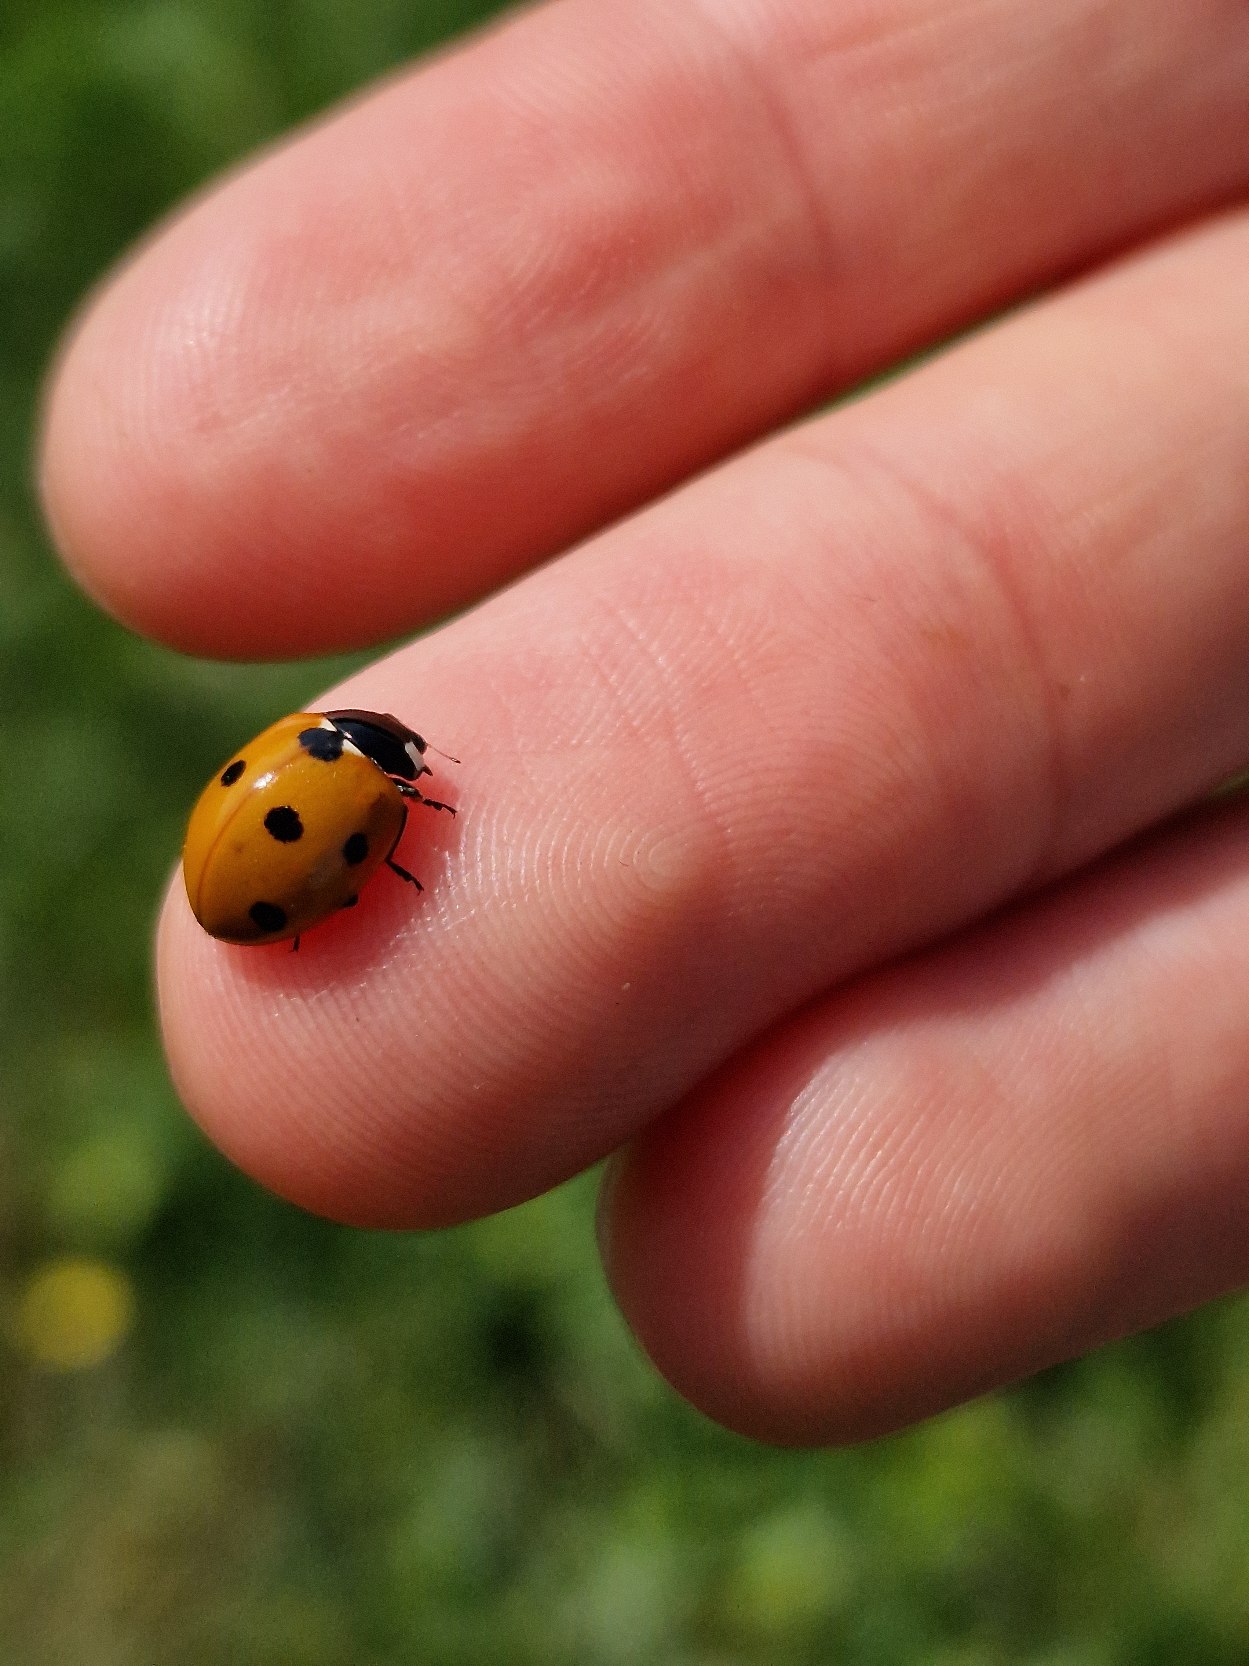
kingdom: Animalia
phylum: Arthropoda
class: Insecta
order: Coleoptera
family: Coccinellidae
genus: Coccinella
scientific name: Coccinella septempunctata
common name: Syvplettet mariehøne
